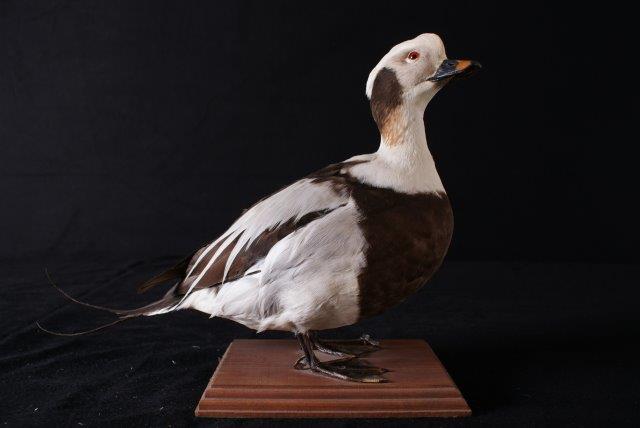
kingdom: Animalia
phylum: Chordata
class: Aves
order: Anseriformes
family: Anatidae
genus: Clangula
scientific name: Clangula hyemalis
